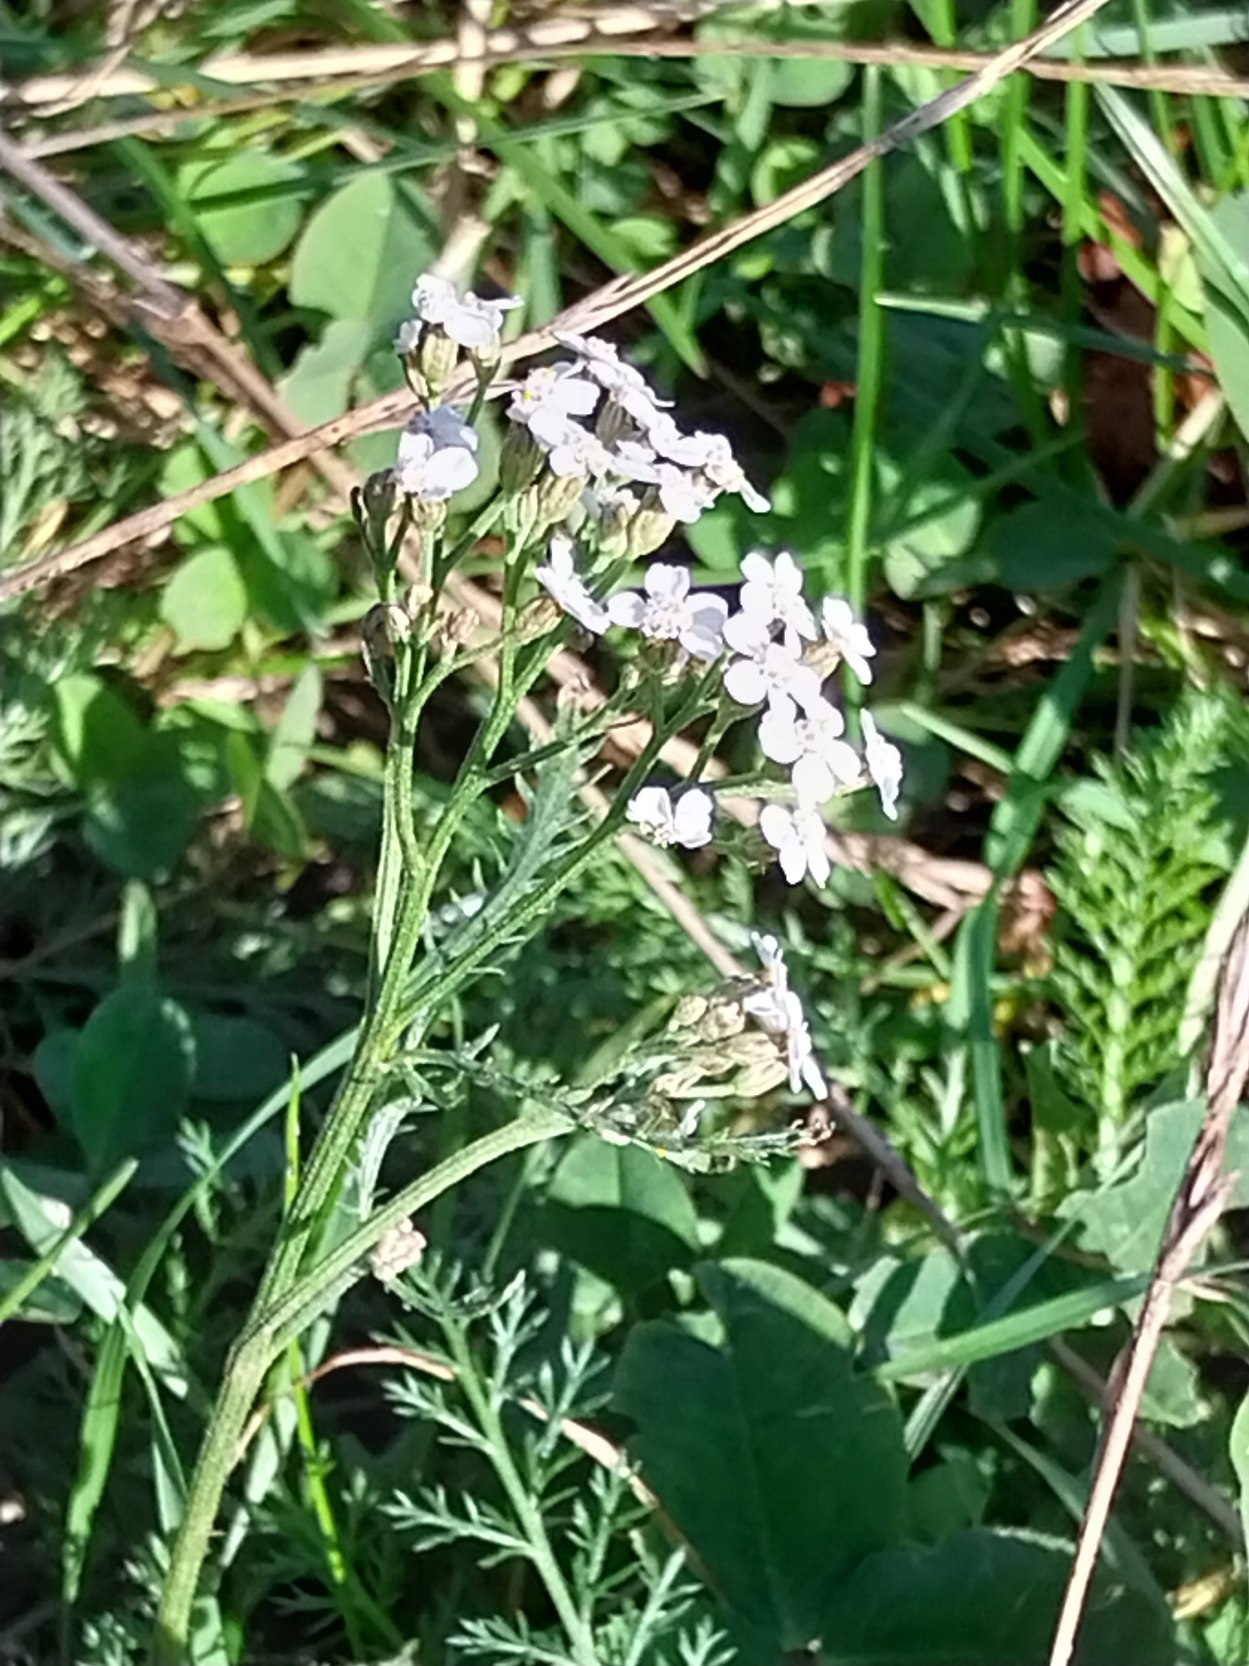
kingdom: Plantae
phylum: Tracheophyta
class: Magnoliopsida
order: Asterales
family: Asteraceae
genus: Achillea
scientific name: Achillea millefolium
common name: Almindelig røllike
